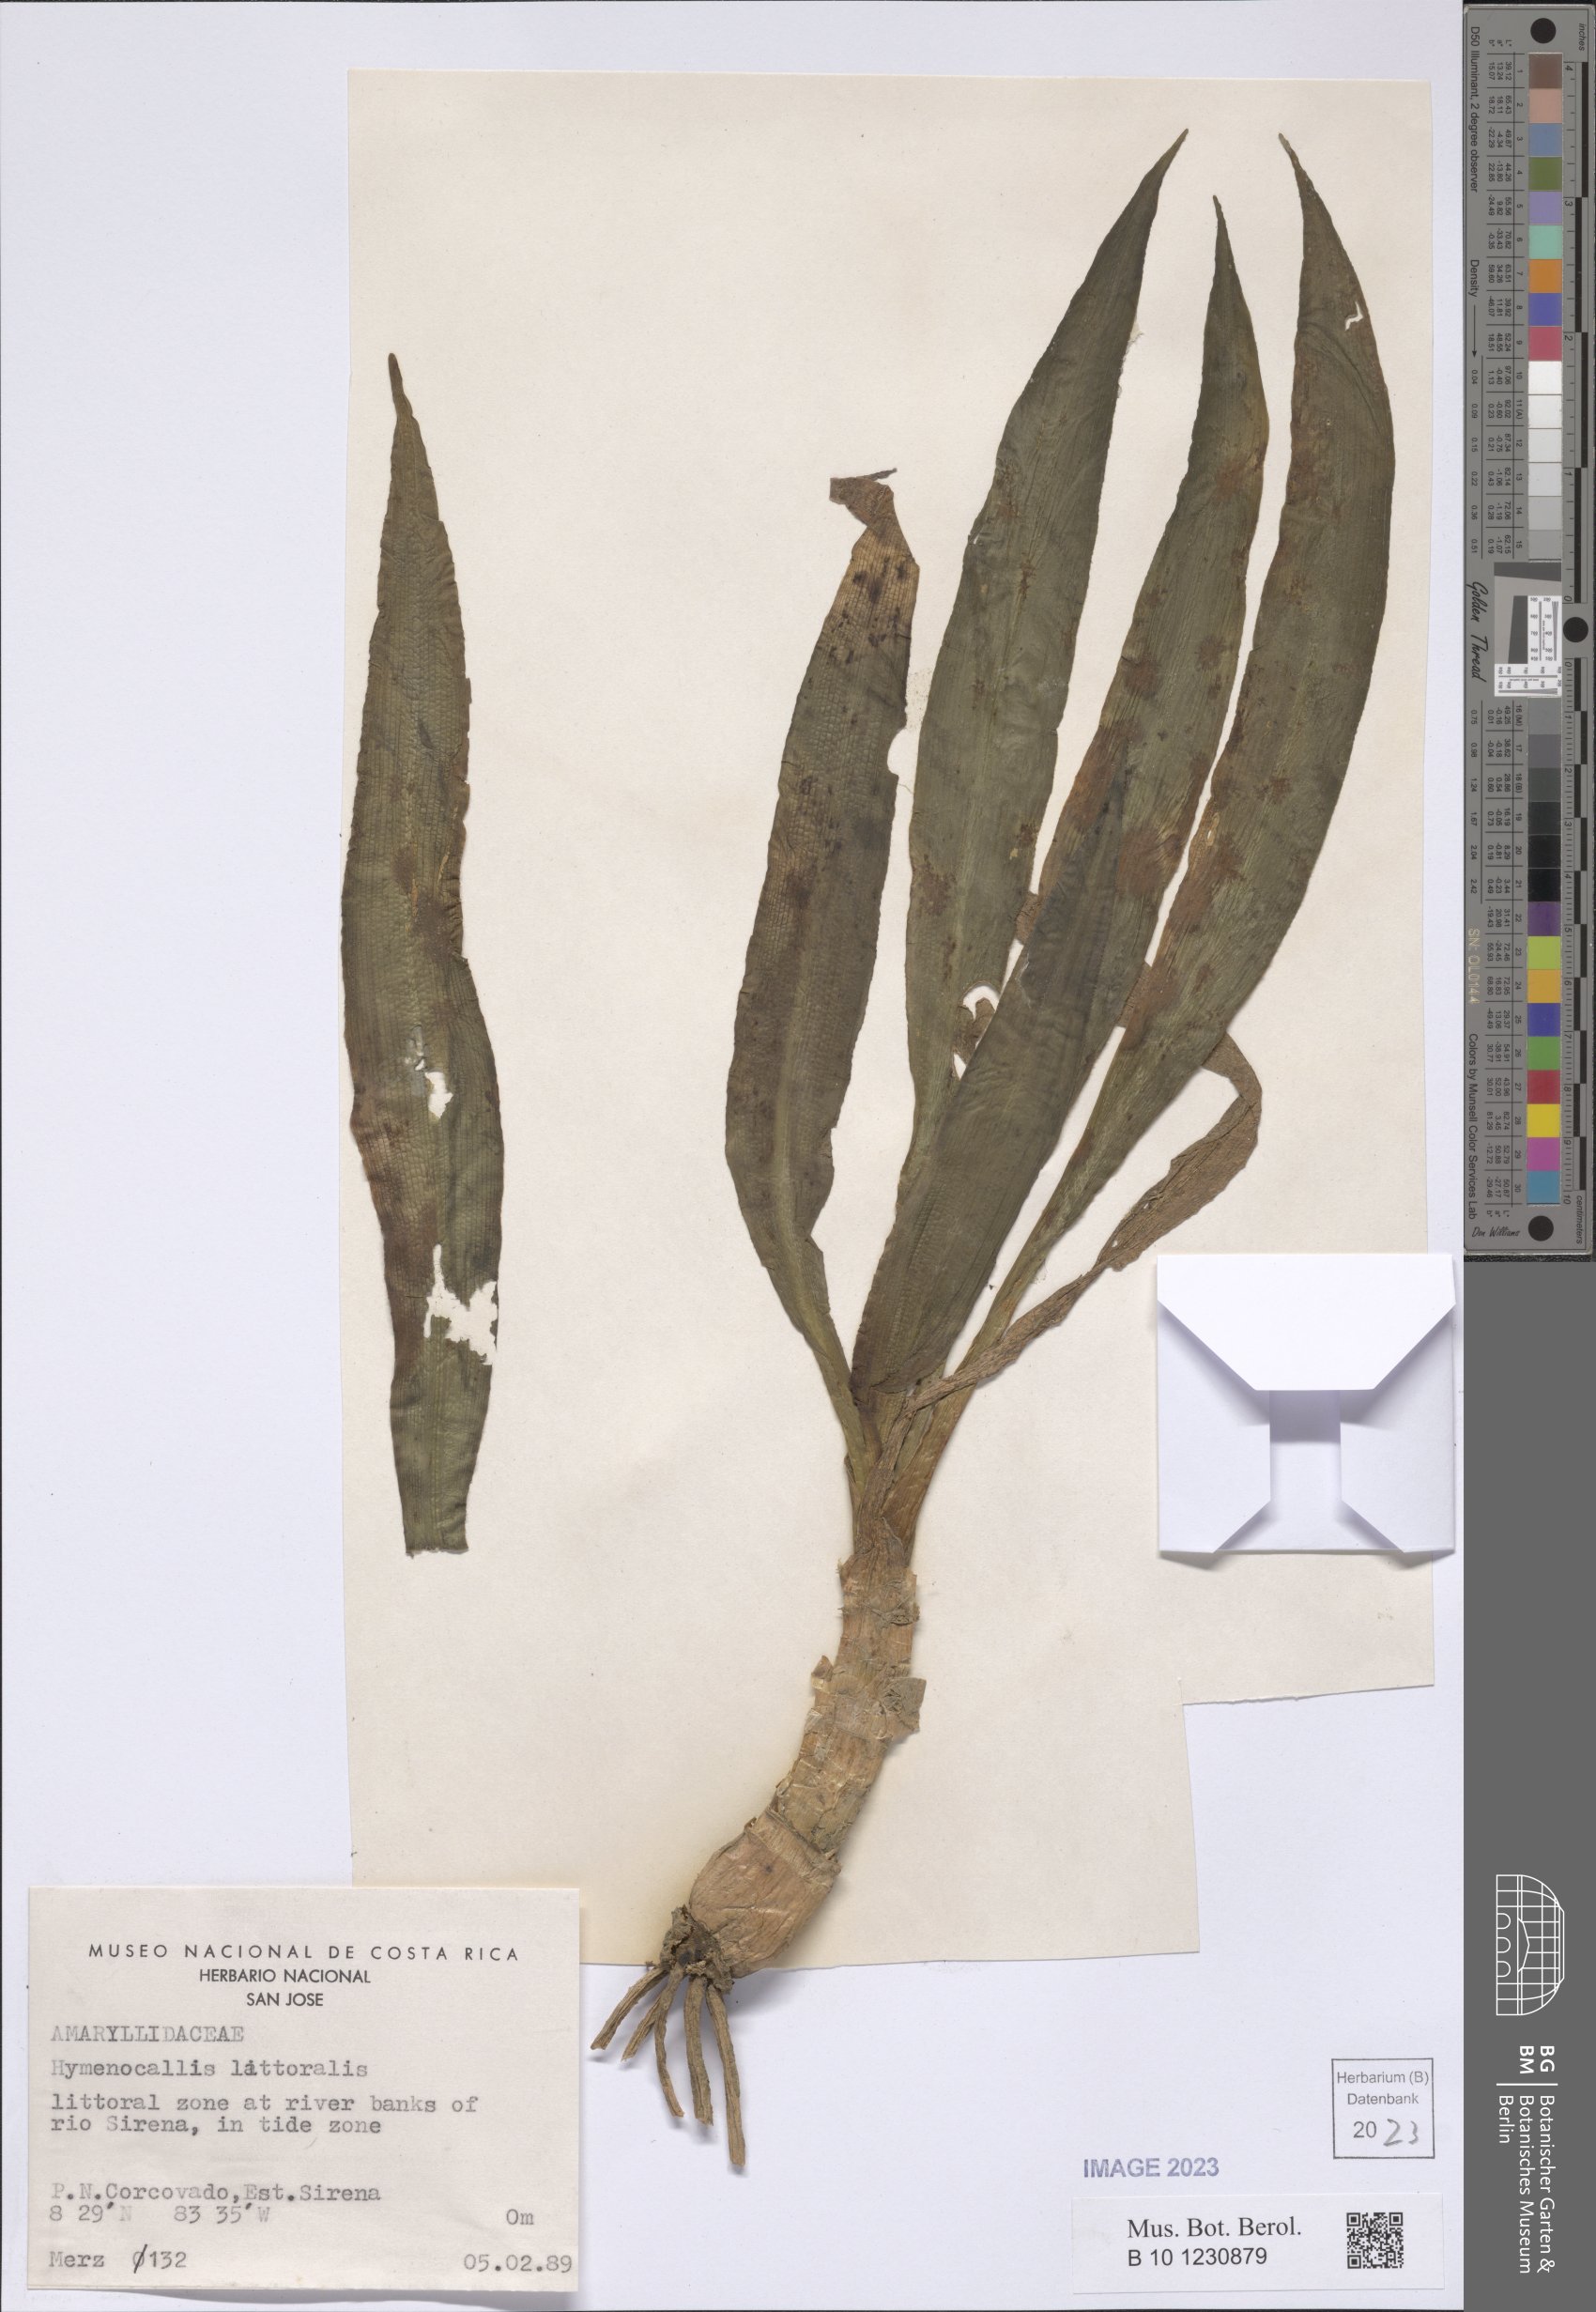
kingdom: Plantae
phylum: Tracheophyta
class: Liliopsida
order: Asparagales
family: Amaryllidaceae
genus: Hymenocallis
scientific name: Hymenocallis littoralis
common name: Beach spiderlily
